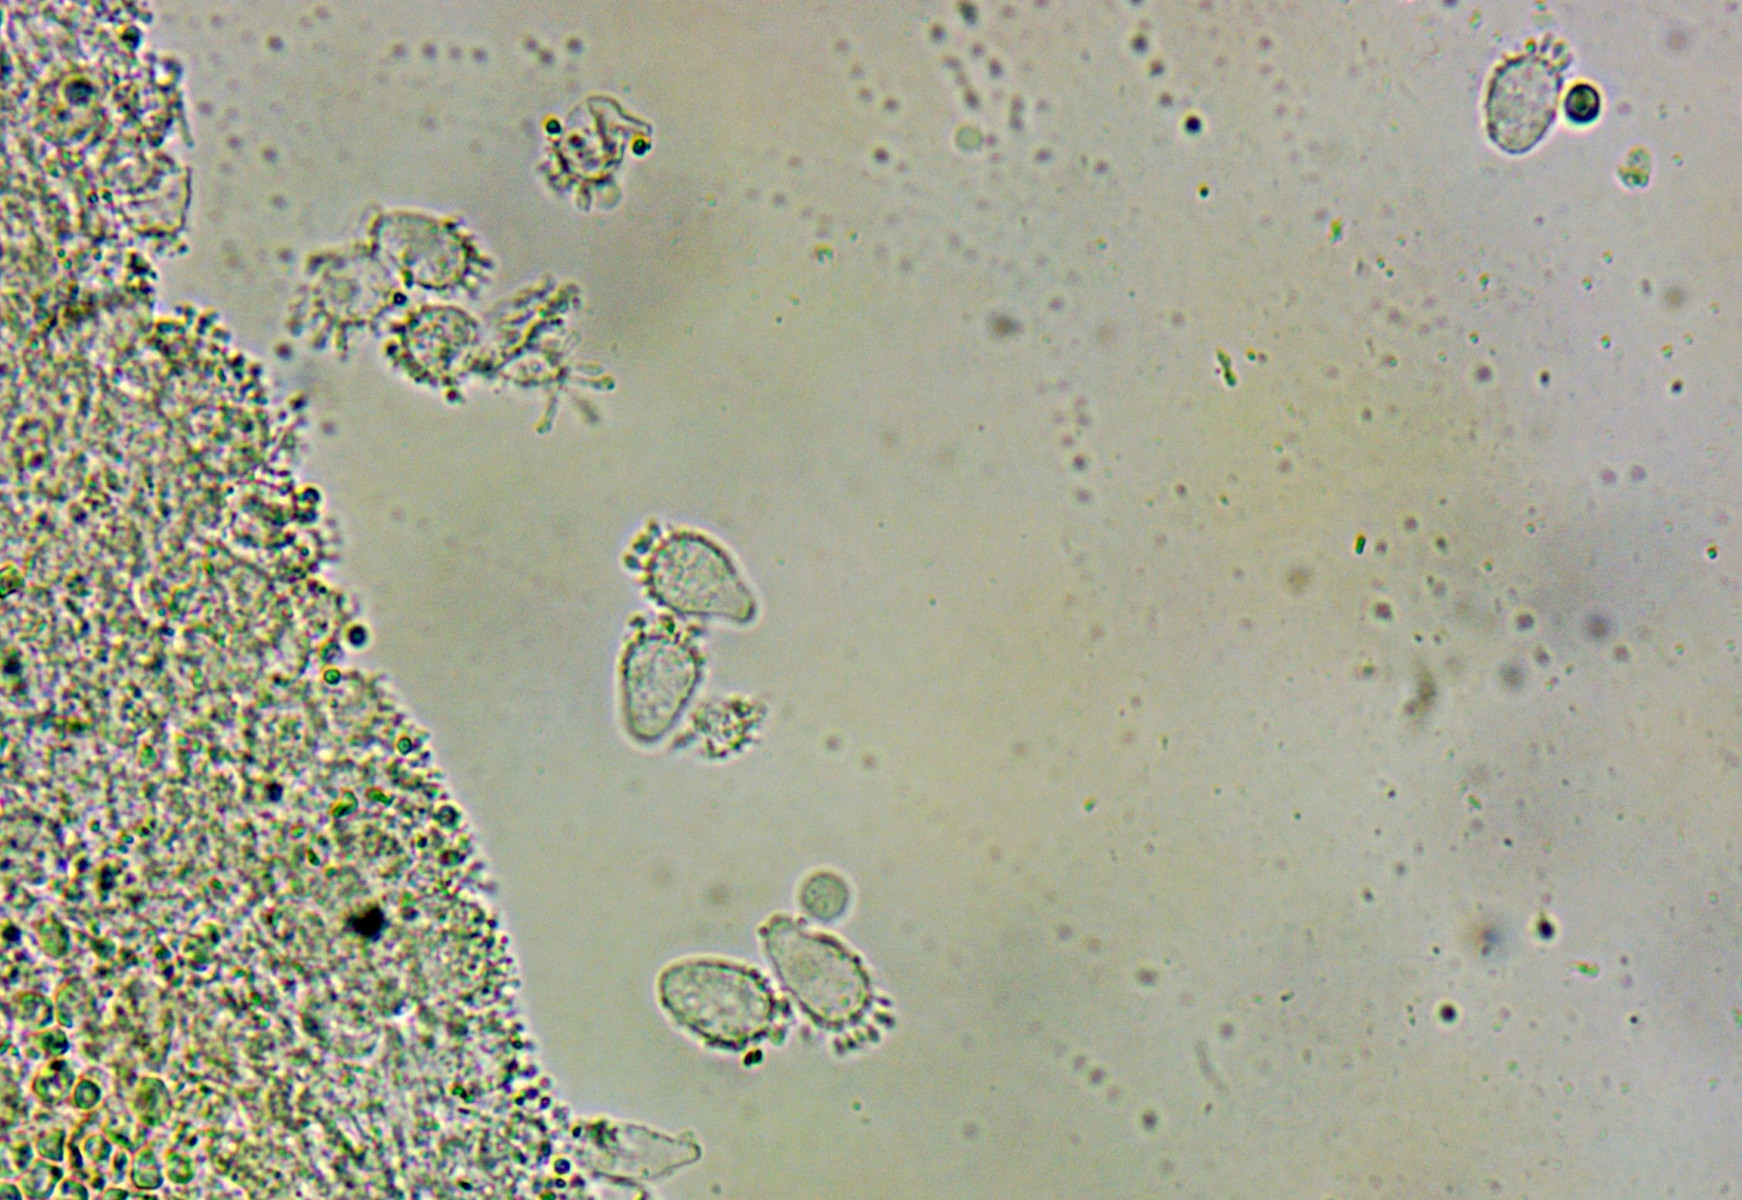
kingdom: Fungi
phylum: Basidiomycota
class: Agaricomycetes
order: Agaricales
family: Mycenaceae
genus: Mycena
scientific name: Mycena xantholeuca
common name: cremehvid huesvamp
